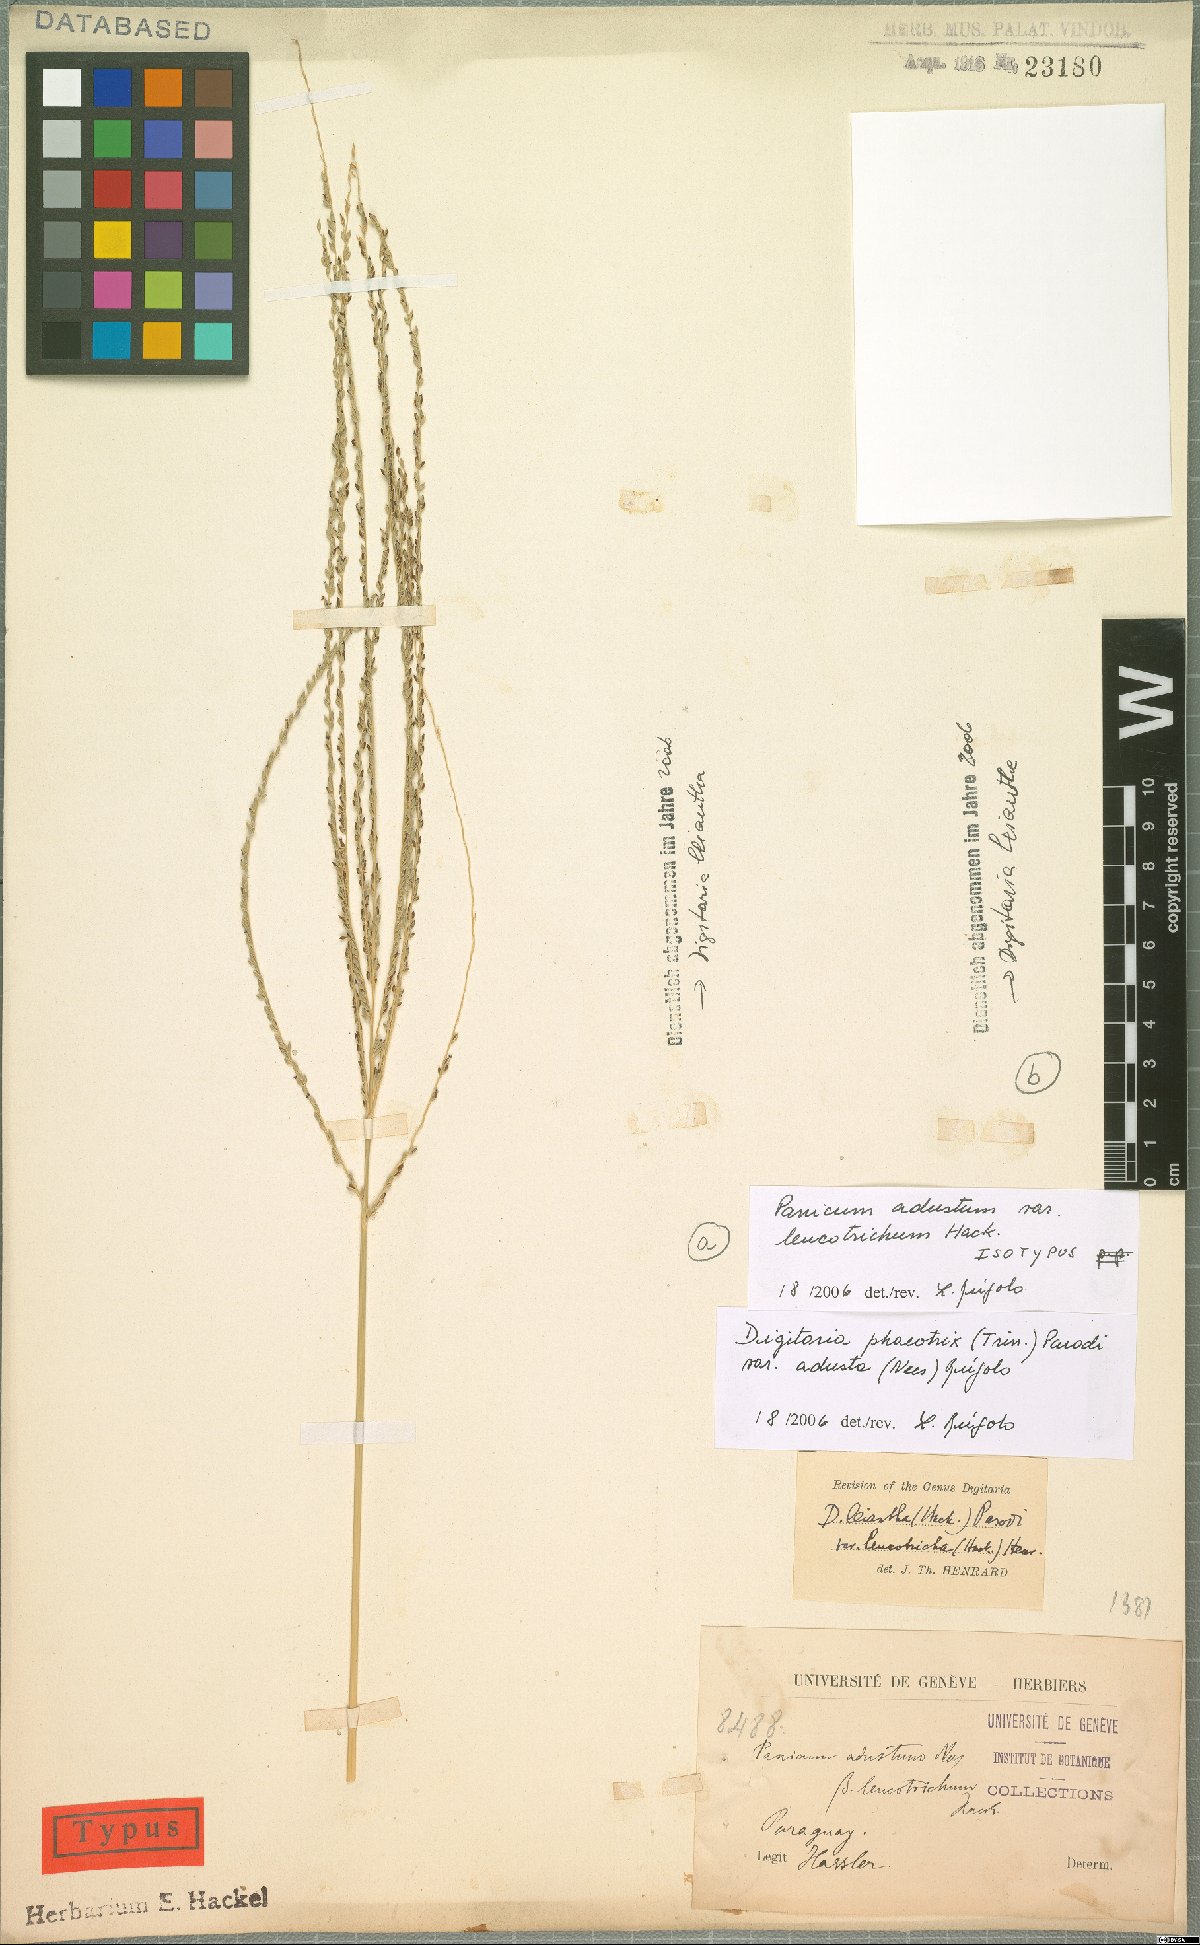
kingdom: Plantae
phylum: Tracheophyta
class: Liliopsida
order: Poales
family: Poaceae
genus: Digitaria
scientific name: Digitaria phaeothrix
